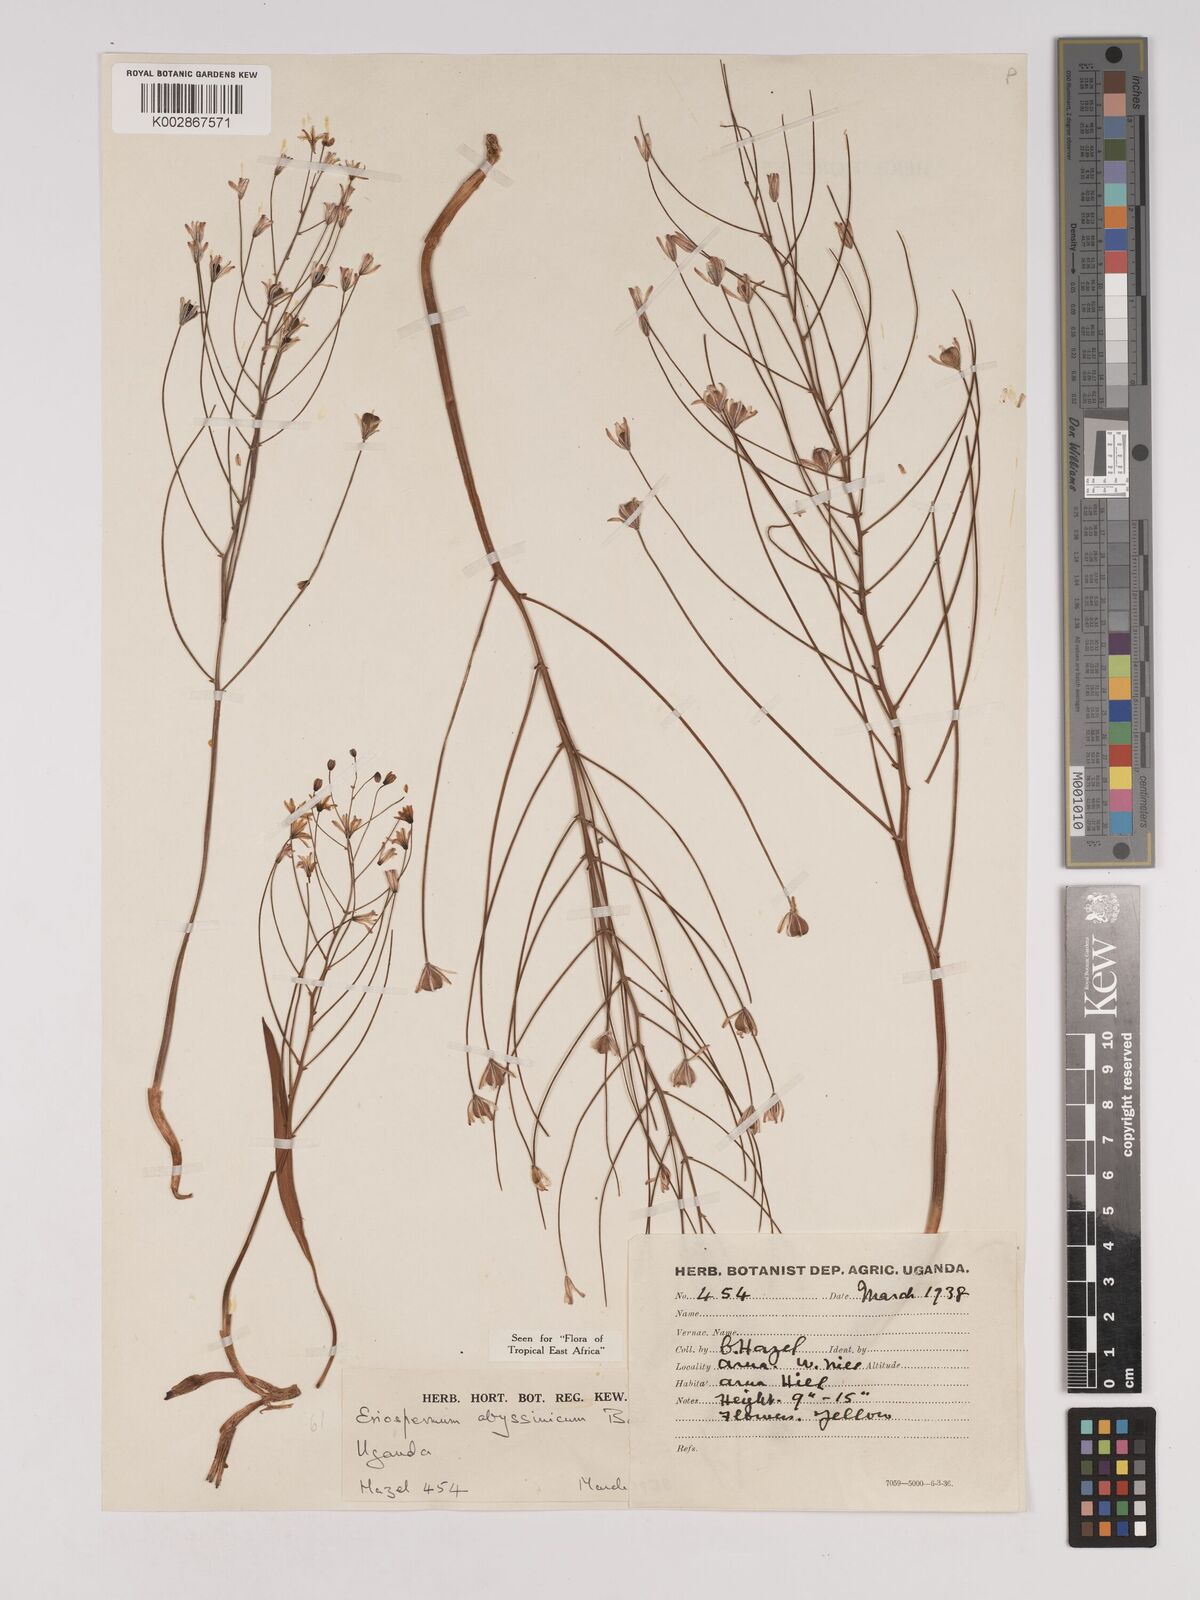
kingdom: Plantae
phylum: Tracheophyta
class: Liliopsida
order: Asparagales
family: Asparagaceae
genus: Eriospermum
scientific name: Eriospermum abyssinicum
